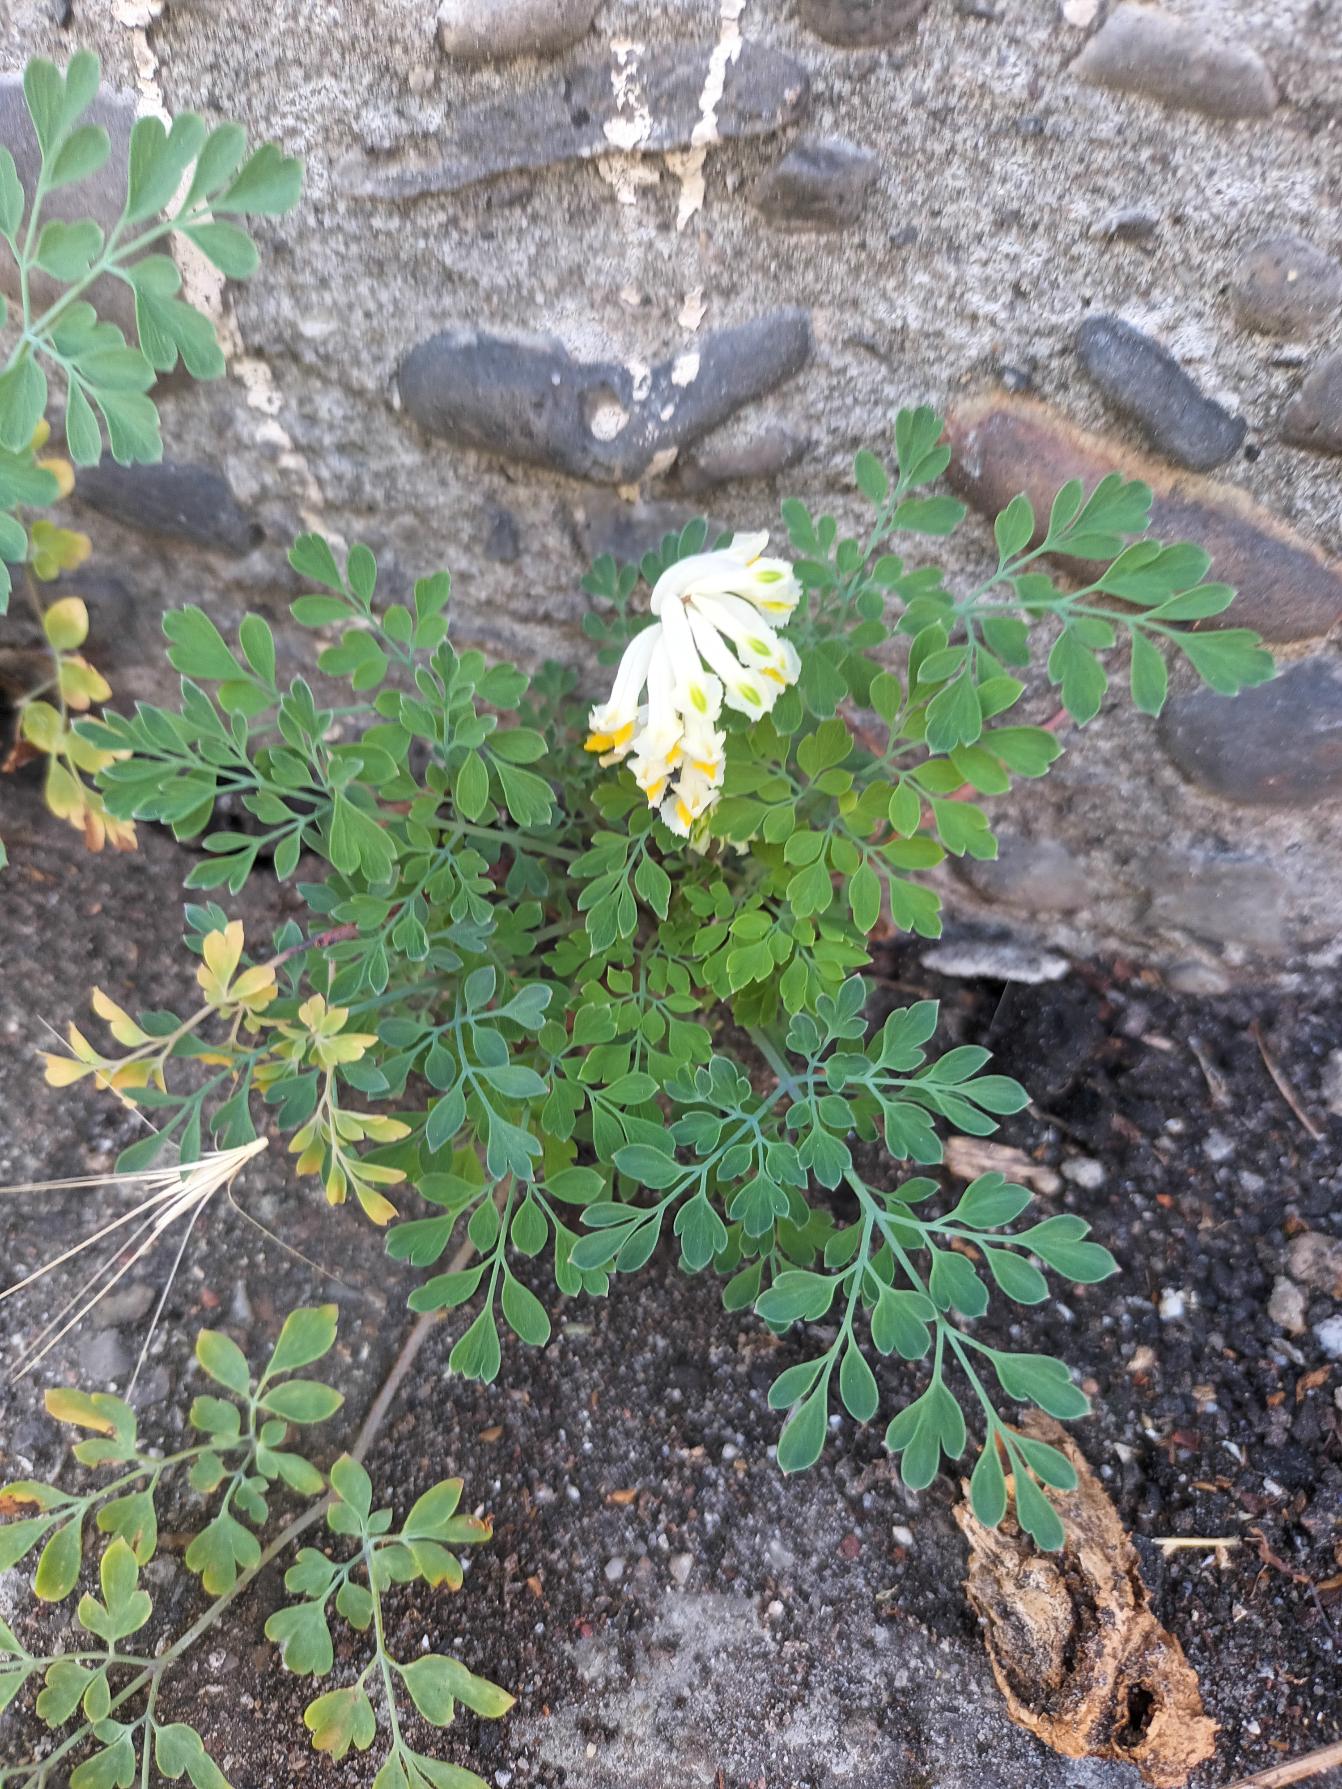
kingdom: Plantae
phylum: Tracheophyta
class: Magnoliopsida
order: Ranunculales
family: Papaveraceae
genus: Pseudofumaria
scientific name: Pseudofumaria alba
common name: Hvidgul lærkespore
